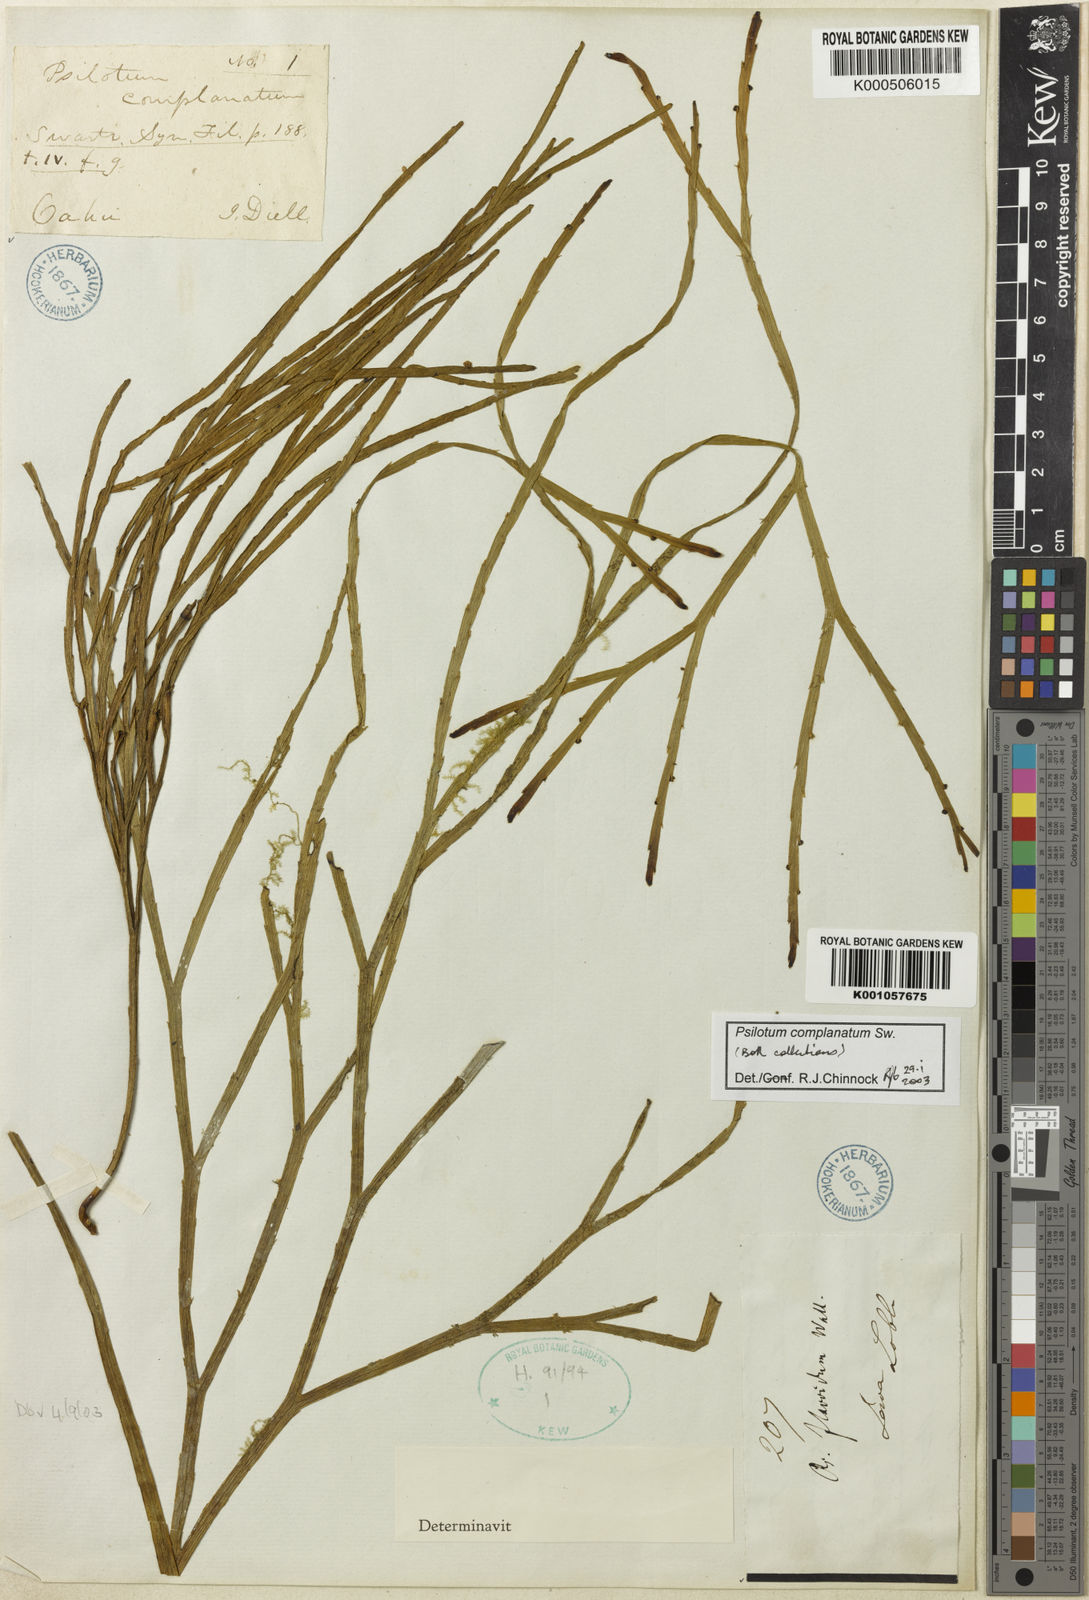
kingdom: Plantae
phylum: Tracheophyta
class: Polypodiopsida
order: Psilotales
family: Psilotaceae
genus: Psilotum
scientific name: Psilotum complanatum
